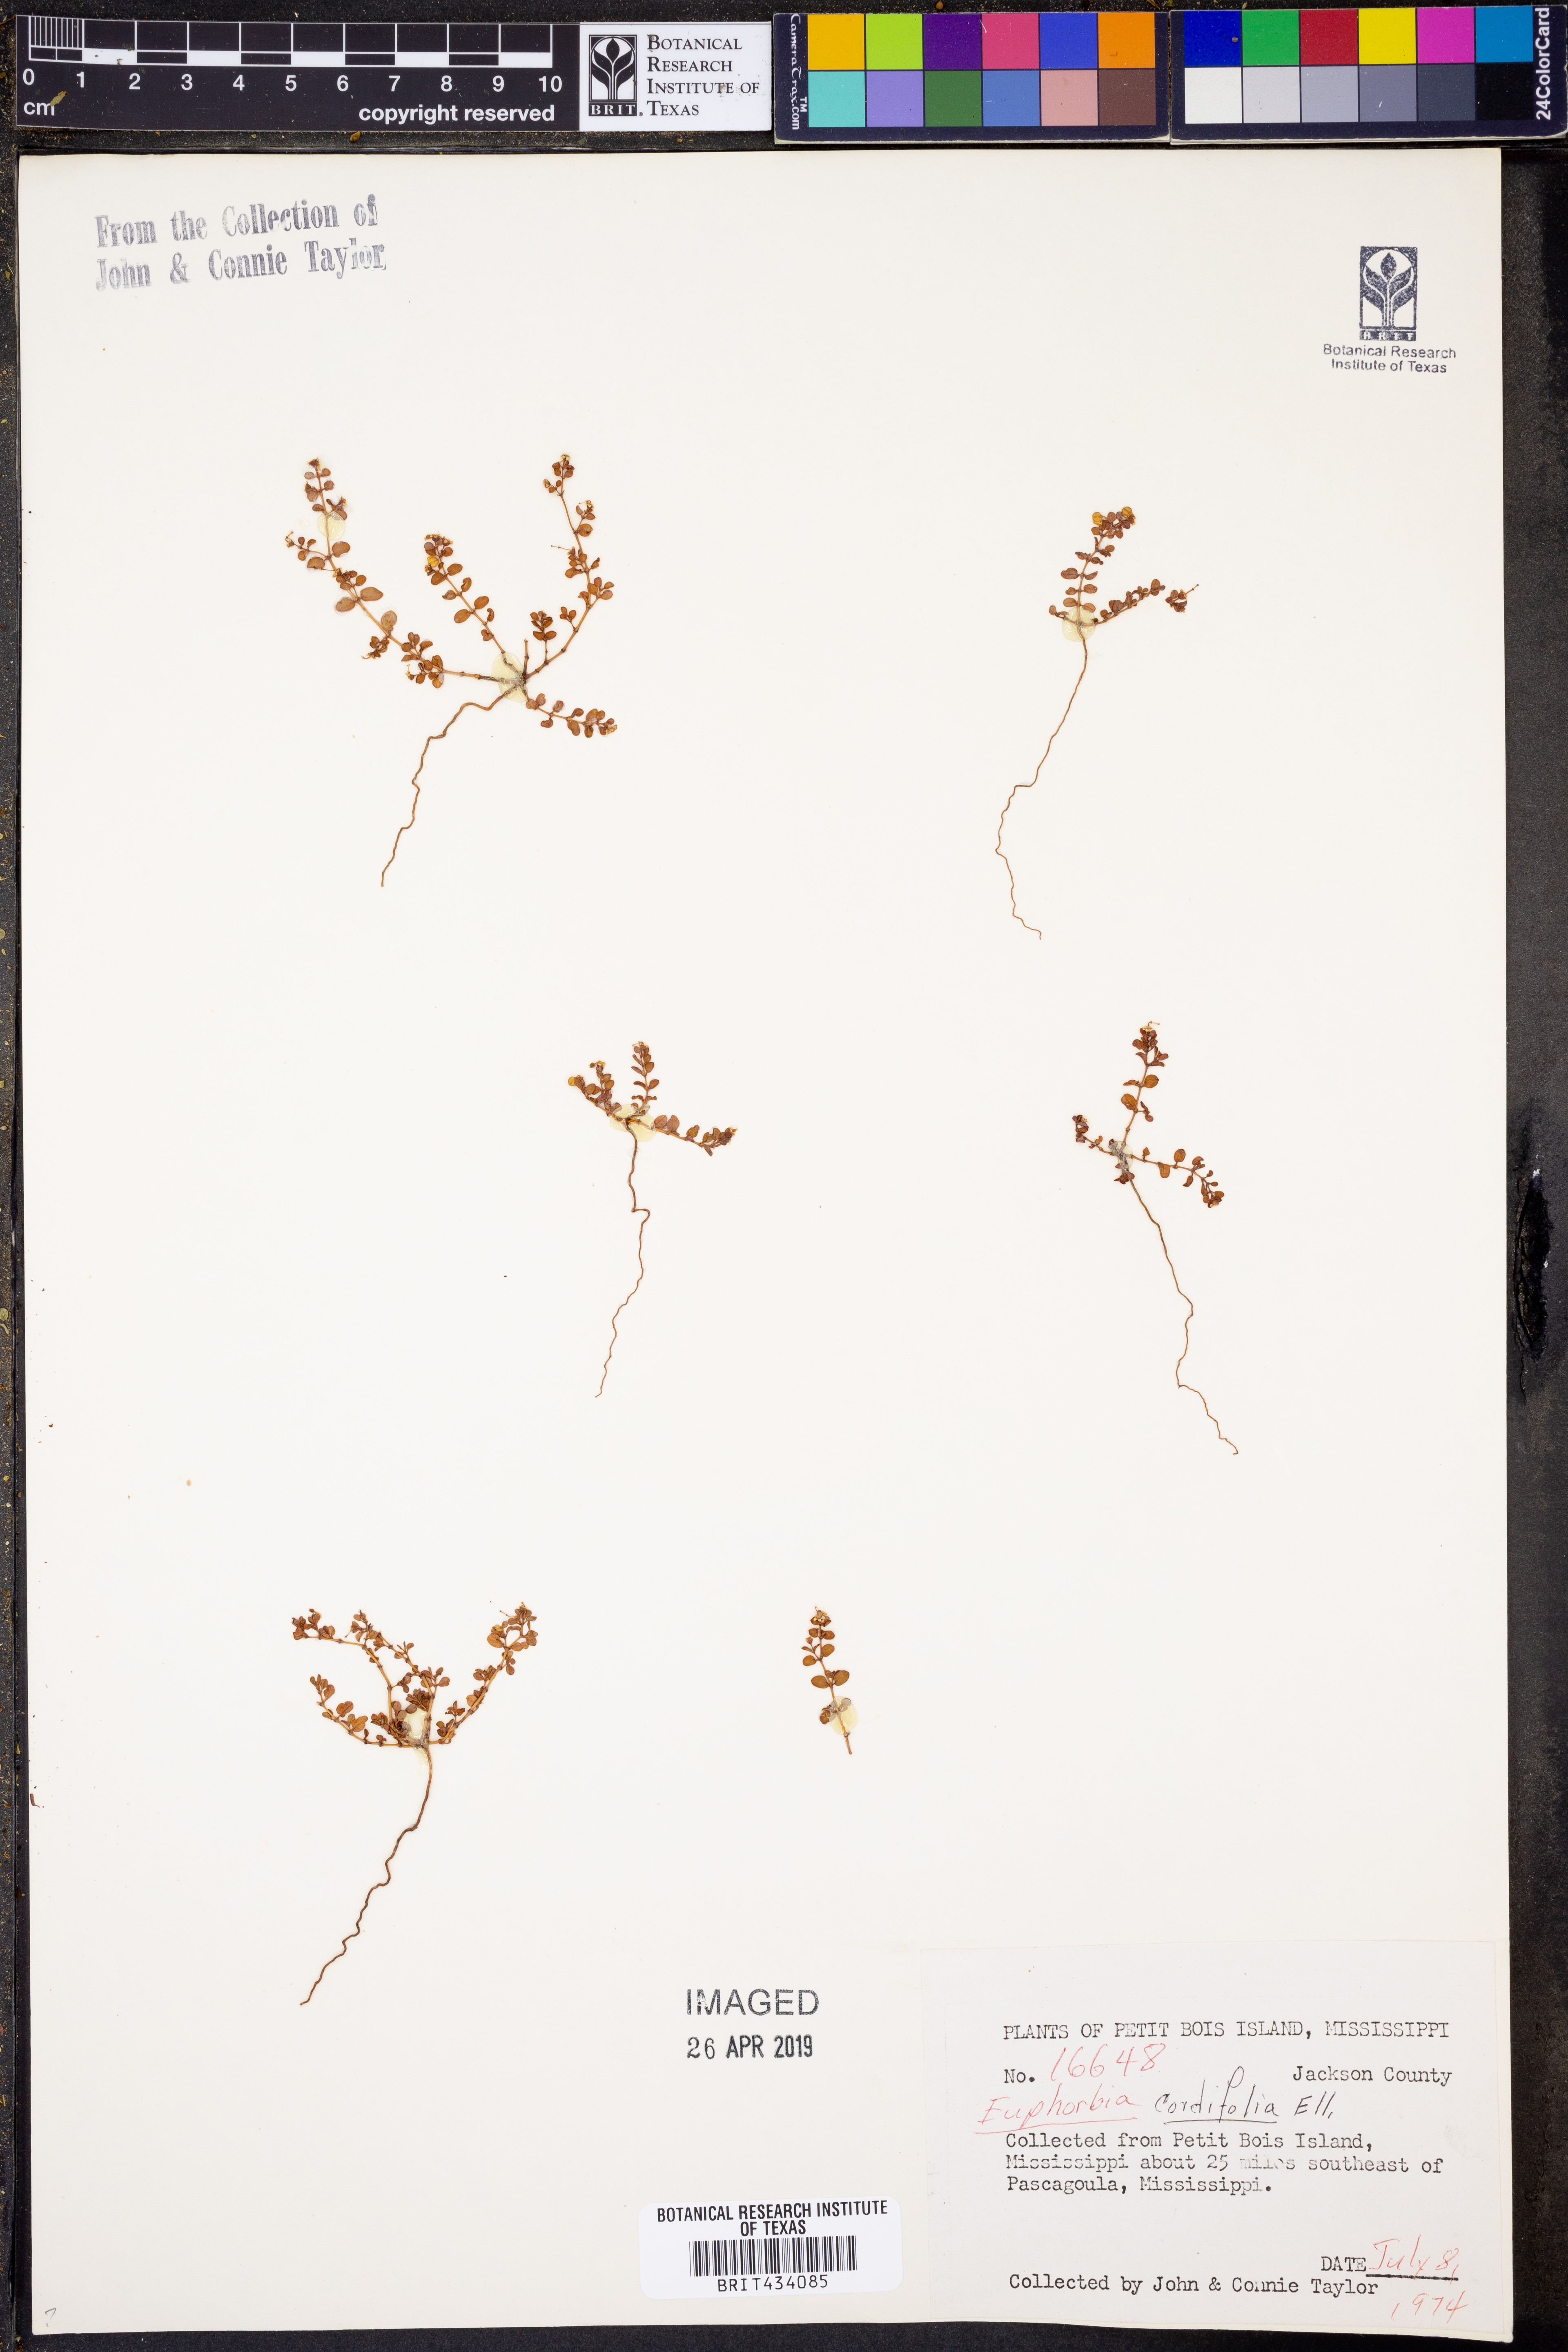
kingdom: Plantae
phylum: Tracheophyta
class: Magnoliopsida
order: Malpighiales
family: Euphorbiaceae
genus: Euphorbia
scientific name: Euphorbia cordifolia
